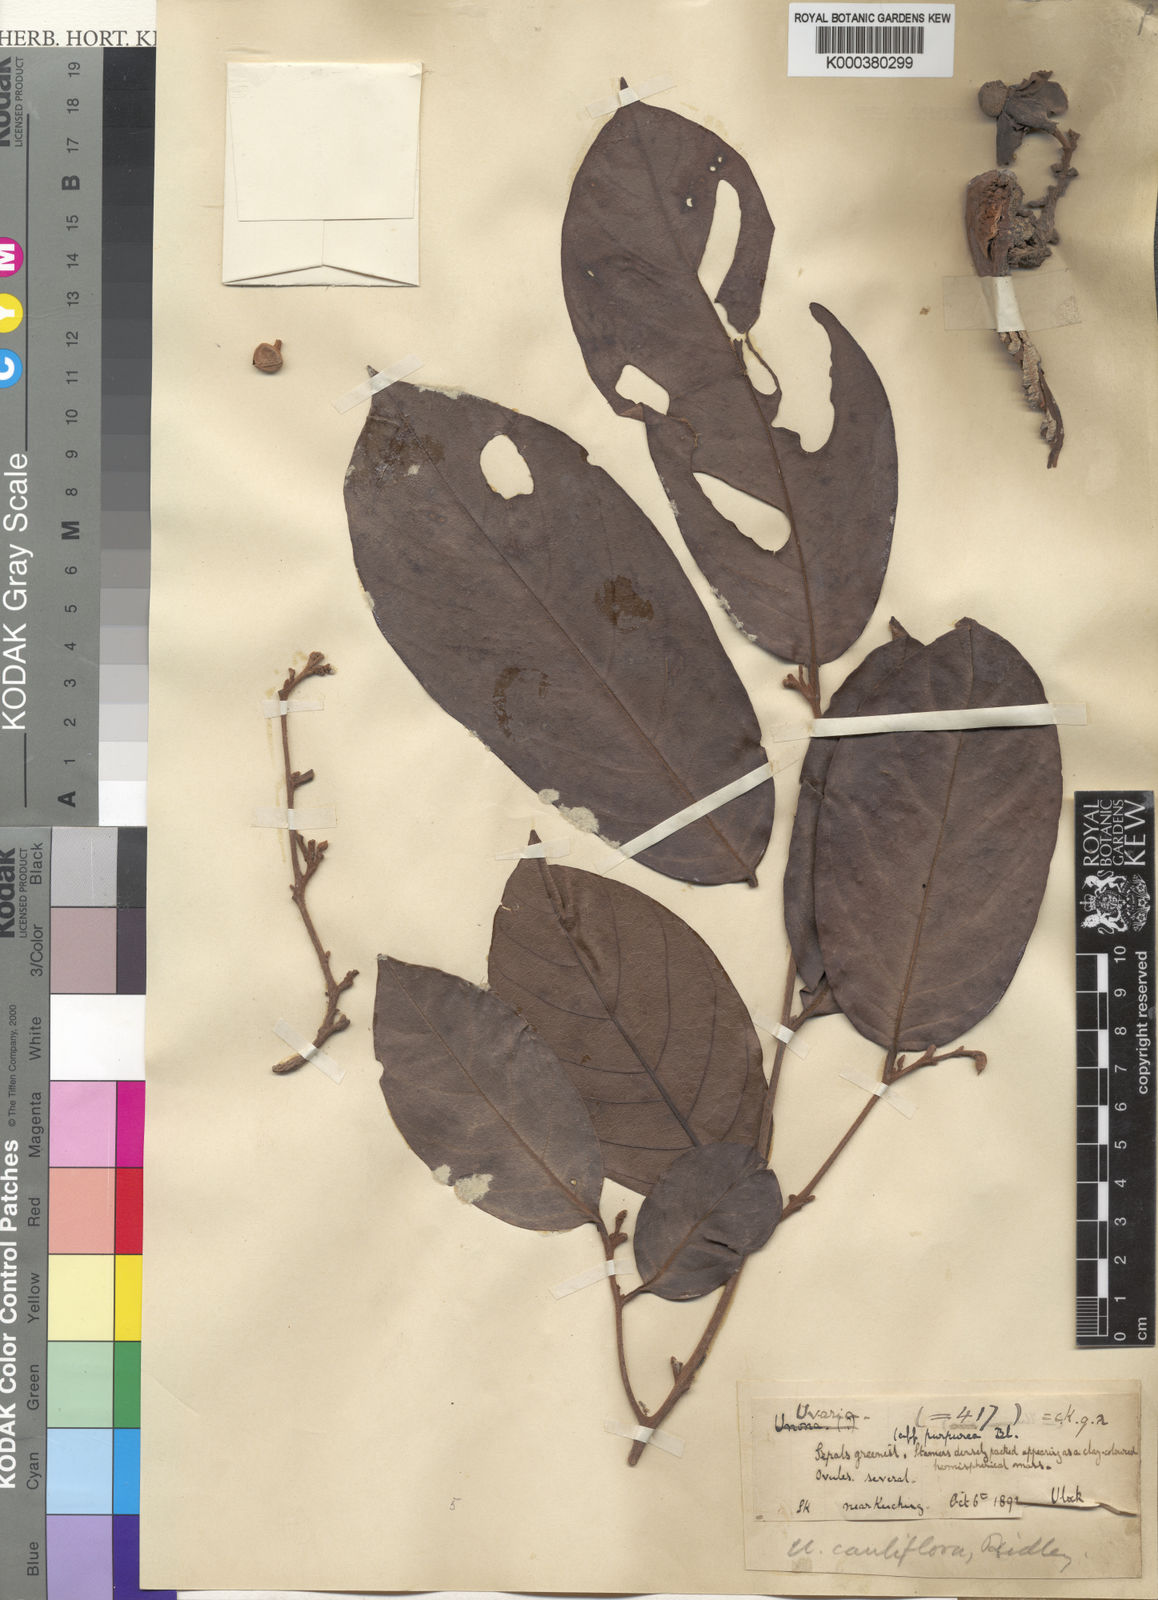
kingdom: Plantae
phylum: Tracheophyta
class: Magnoliopsida
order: Magnoliales
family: Annonaceae
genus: Uvaria
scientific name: Uvaria monticola
